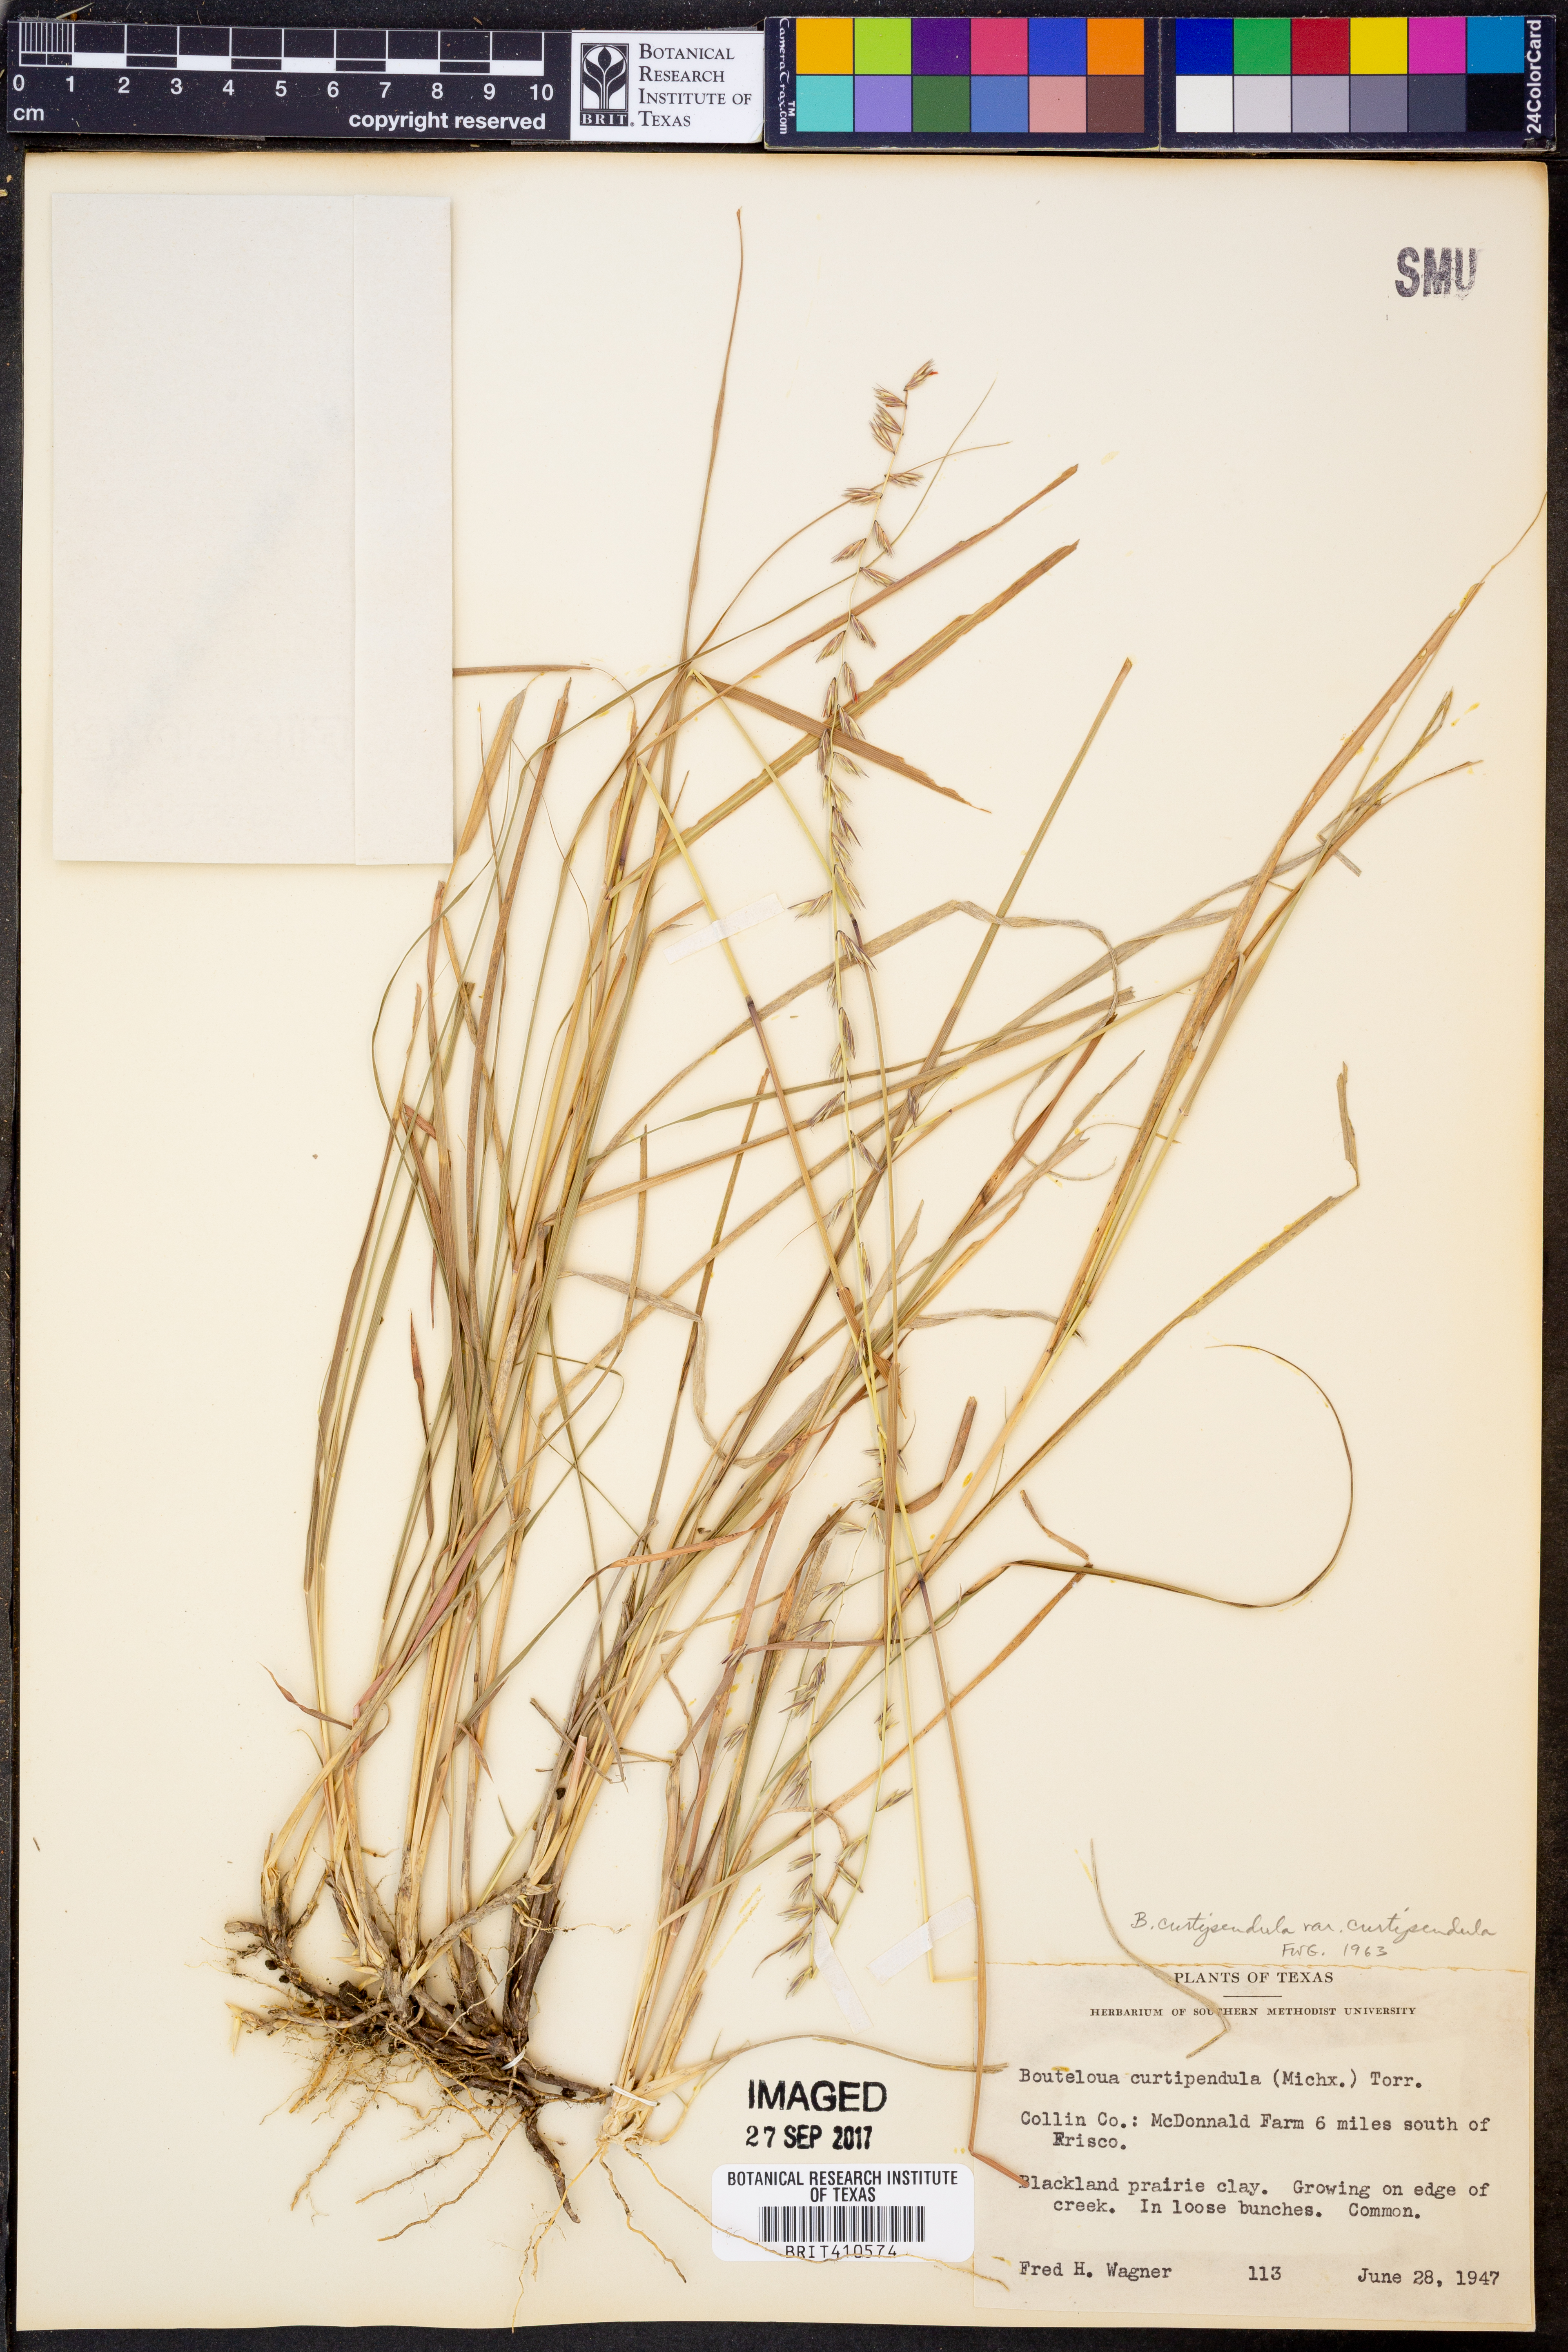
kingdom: Plantae
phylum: Tracheophyta
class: Liliopsida
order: Poales
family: Poaceae
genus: Bouteloua
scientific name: Bouteloua curtipendula
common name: Side-oats grama
